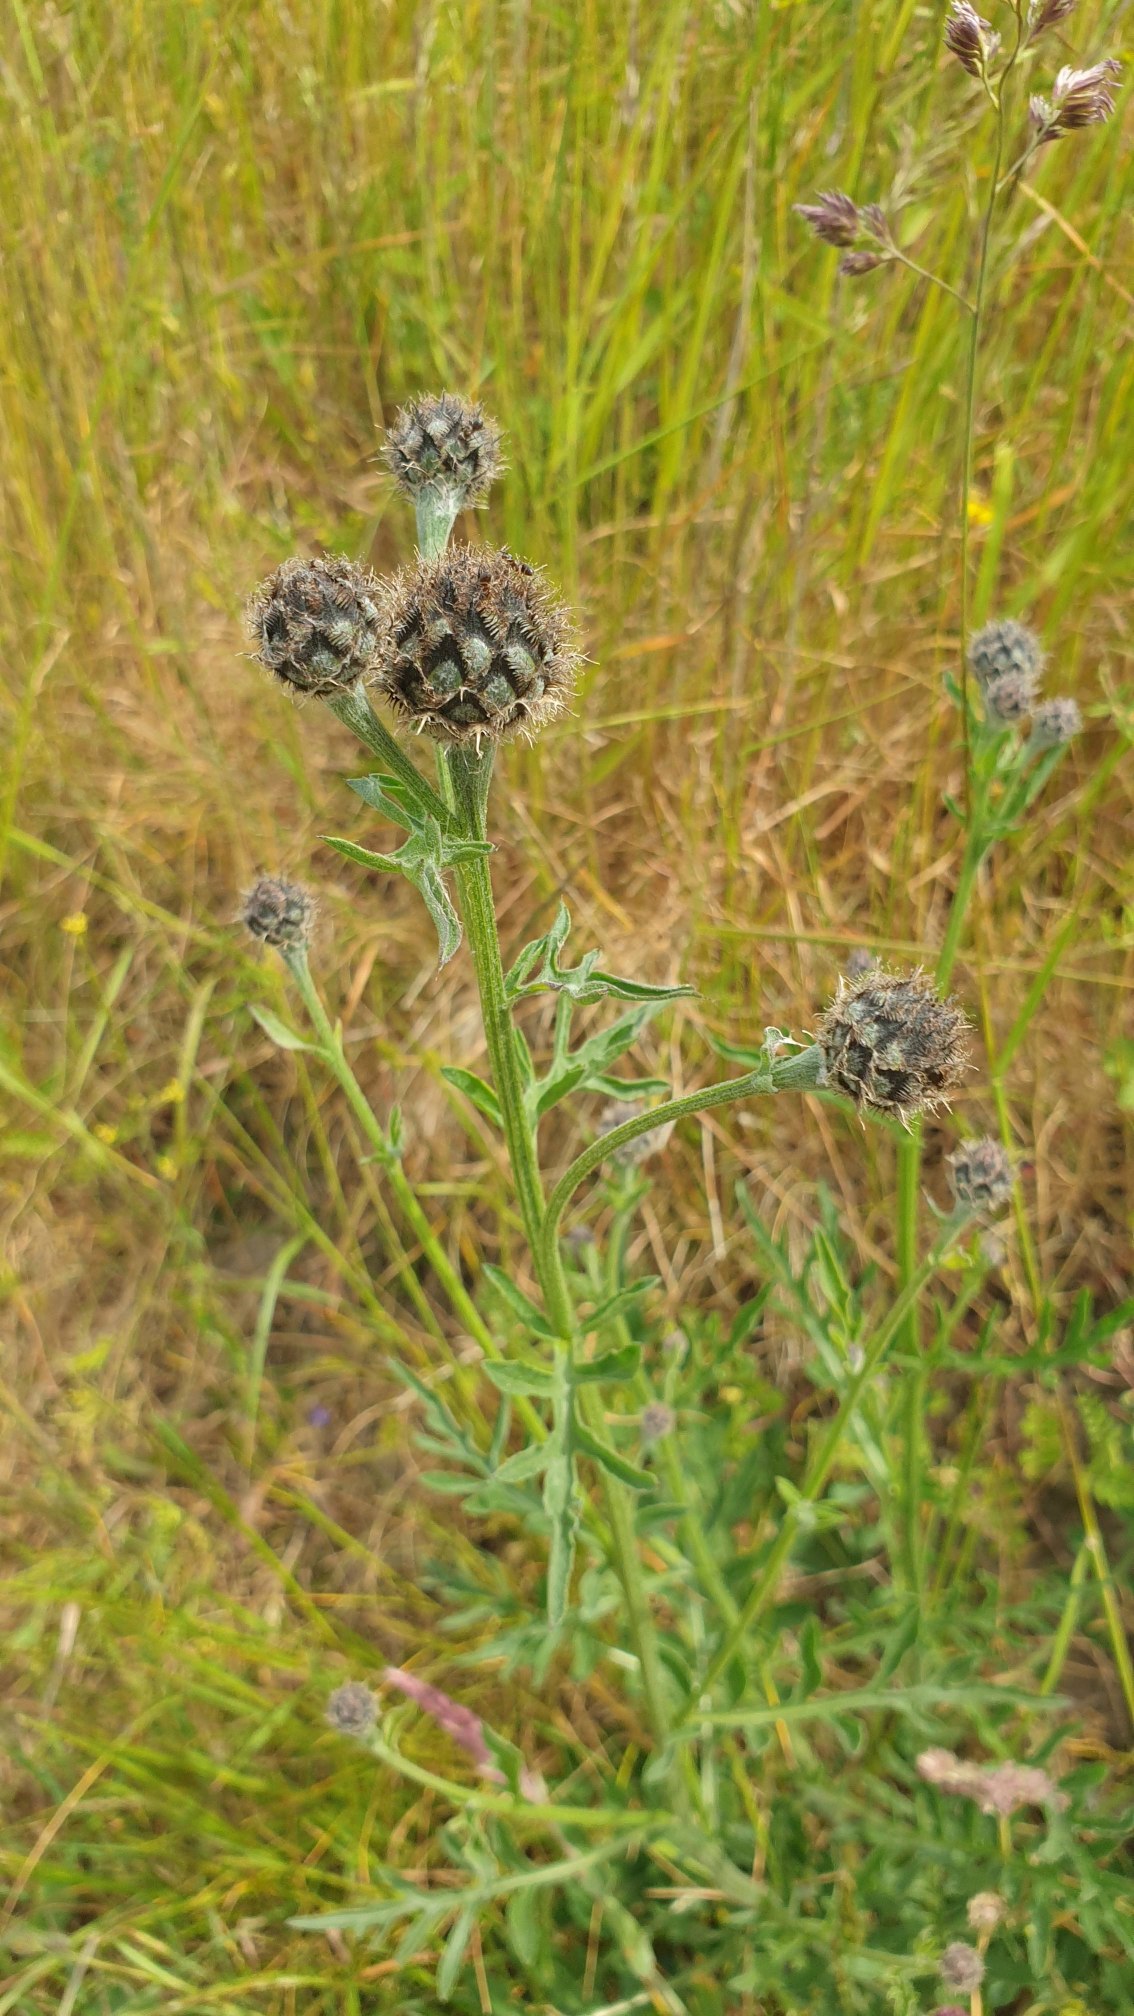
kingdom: Plantae
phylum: Tracheophyta
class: Magnoliopsida
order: Asterales
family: Asteraceae
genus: Centaurea
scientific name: Centaurea scabiosa
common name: Stor knopurt
